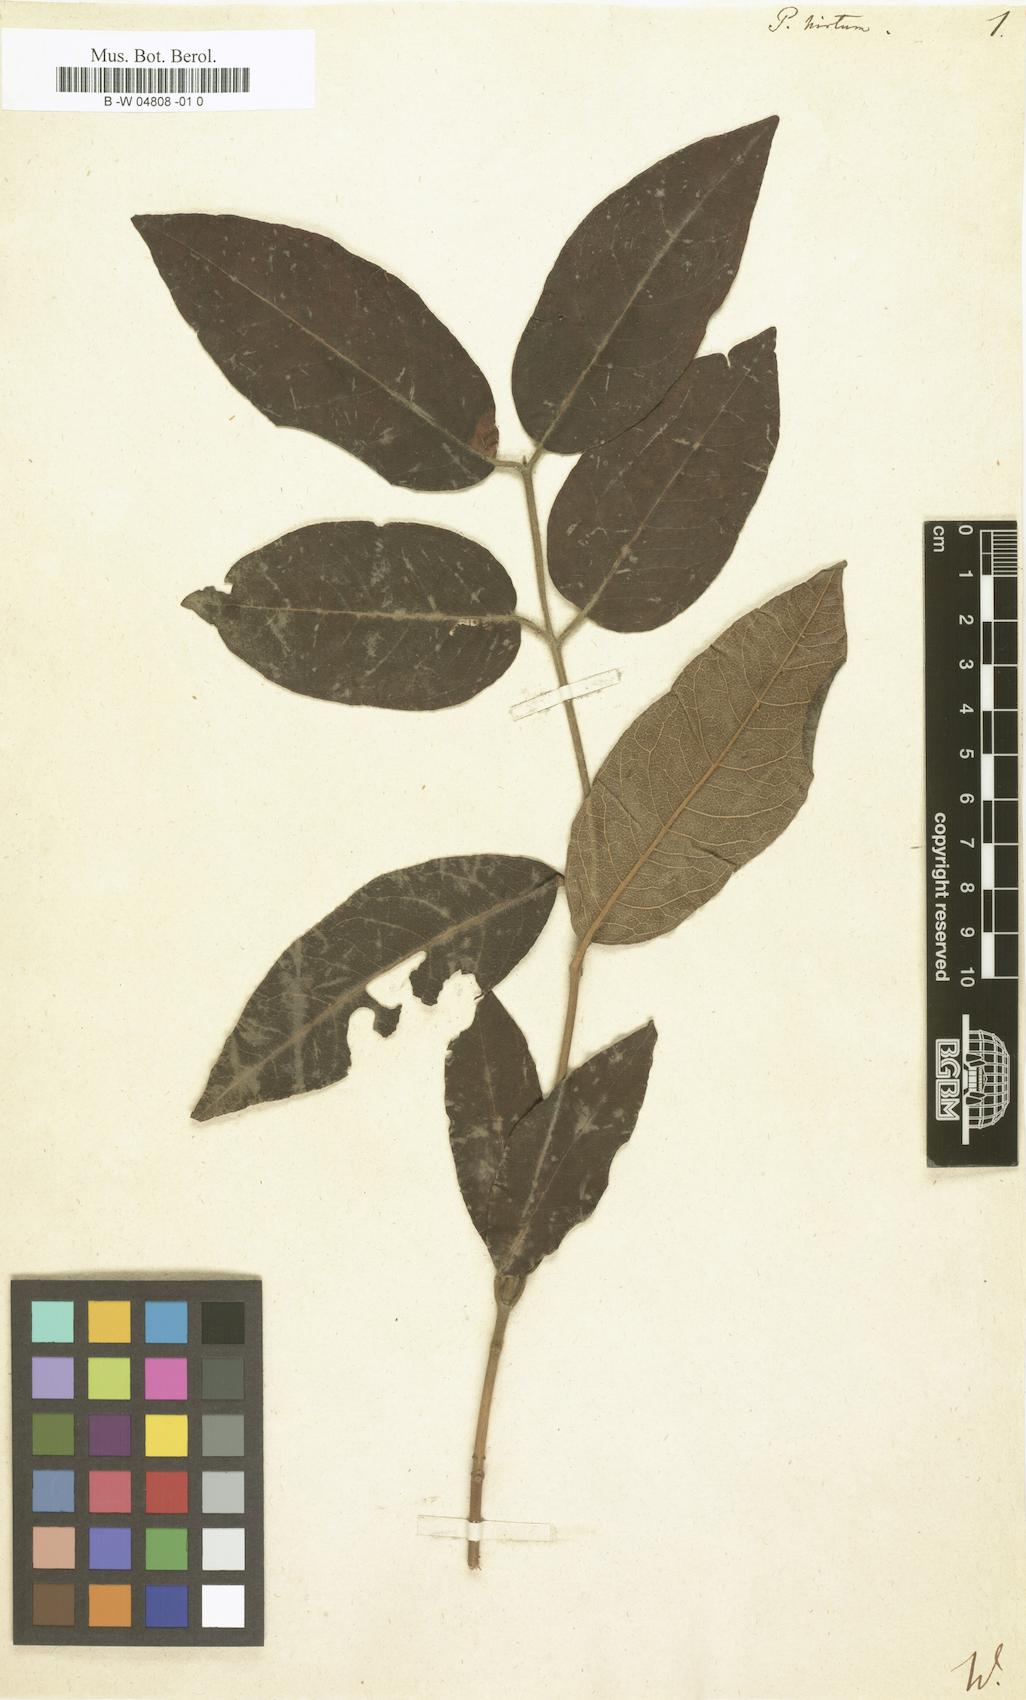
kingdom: Plantae
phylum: Tracheophyta
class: Magnoliopsida
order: Apiales
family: Pittosporaceae
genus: Pittosporum
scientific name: Pittosporum revolutum
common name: Brisbane-laurel
